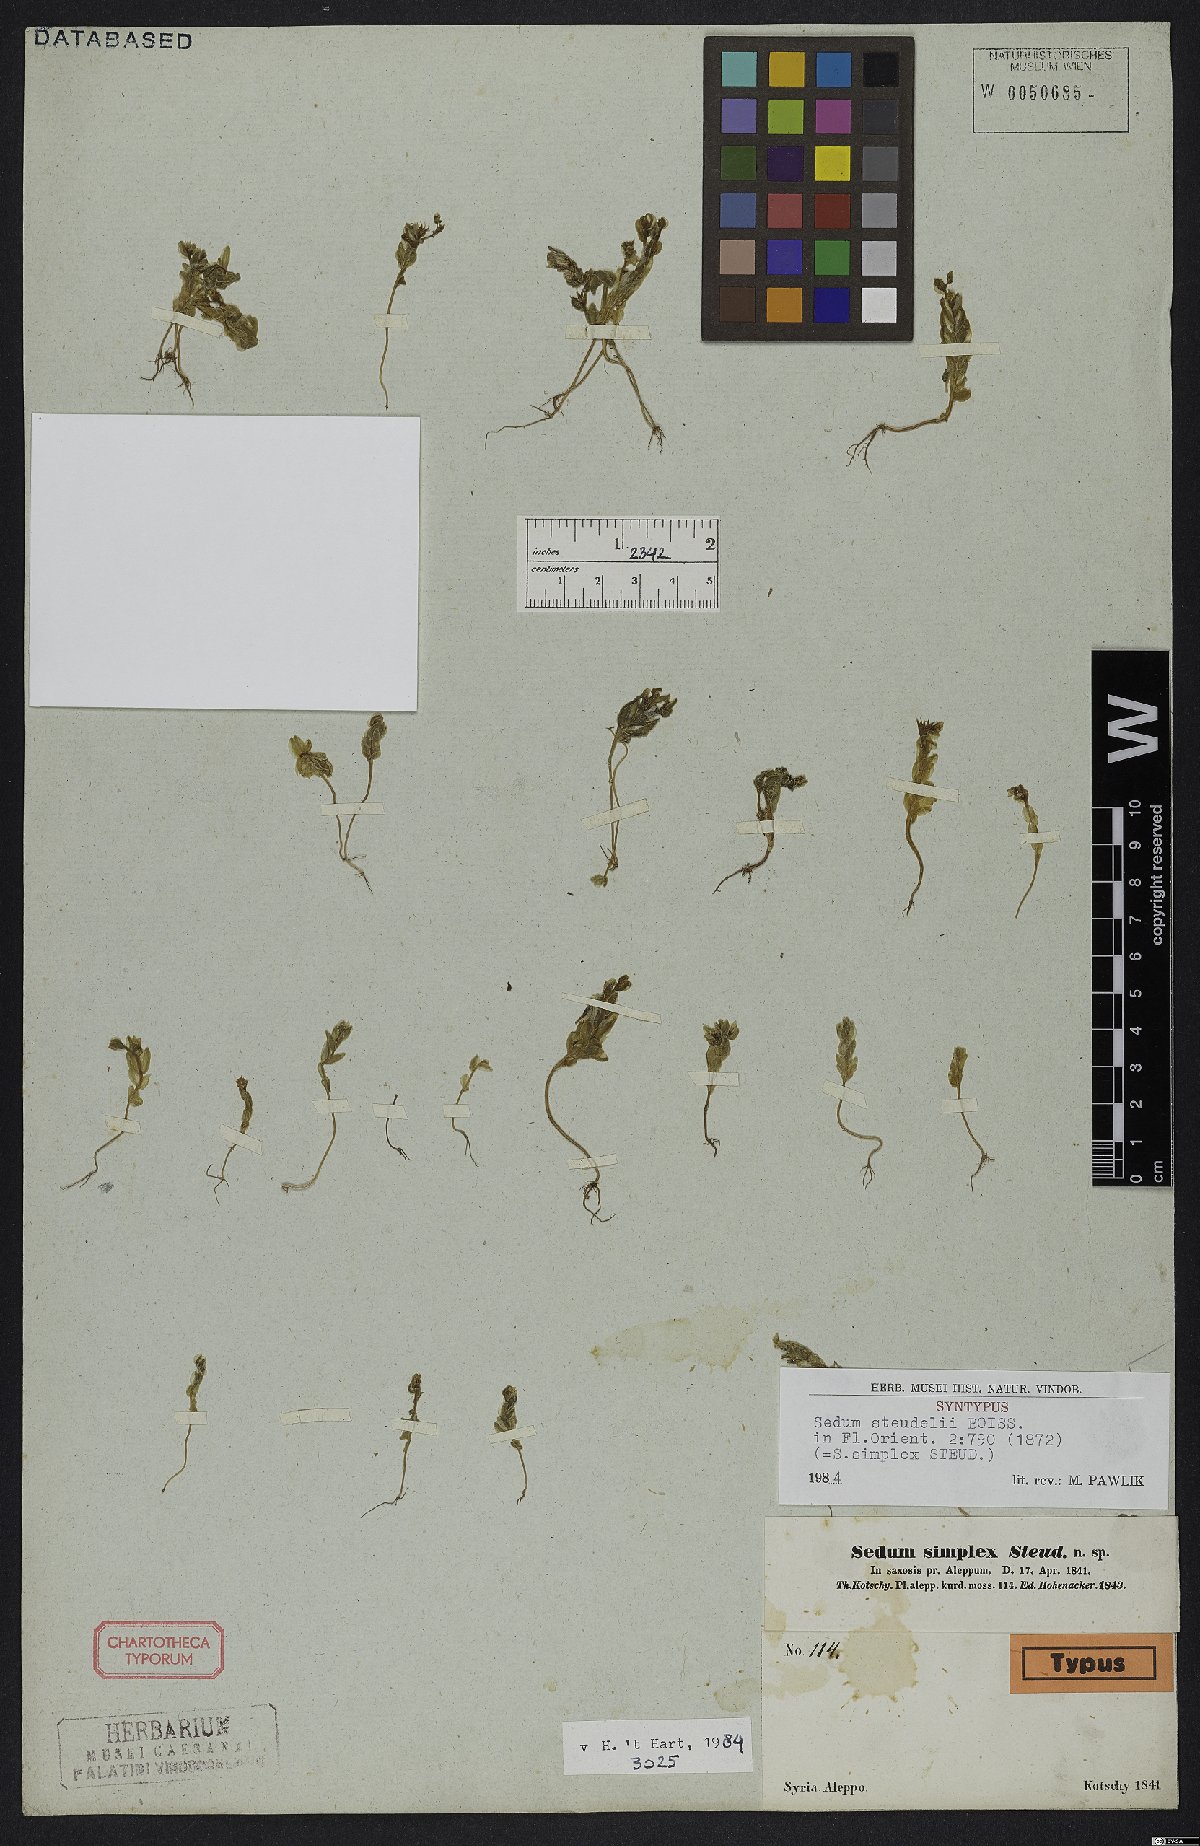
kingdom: Plantae
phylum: Tracheophyta
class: Magnoliopsida
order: Saxifragales
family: Crassulaceae
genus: Sedum
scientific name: Sedum rubens
